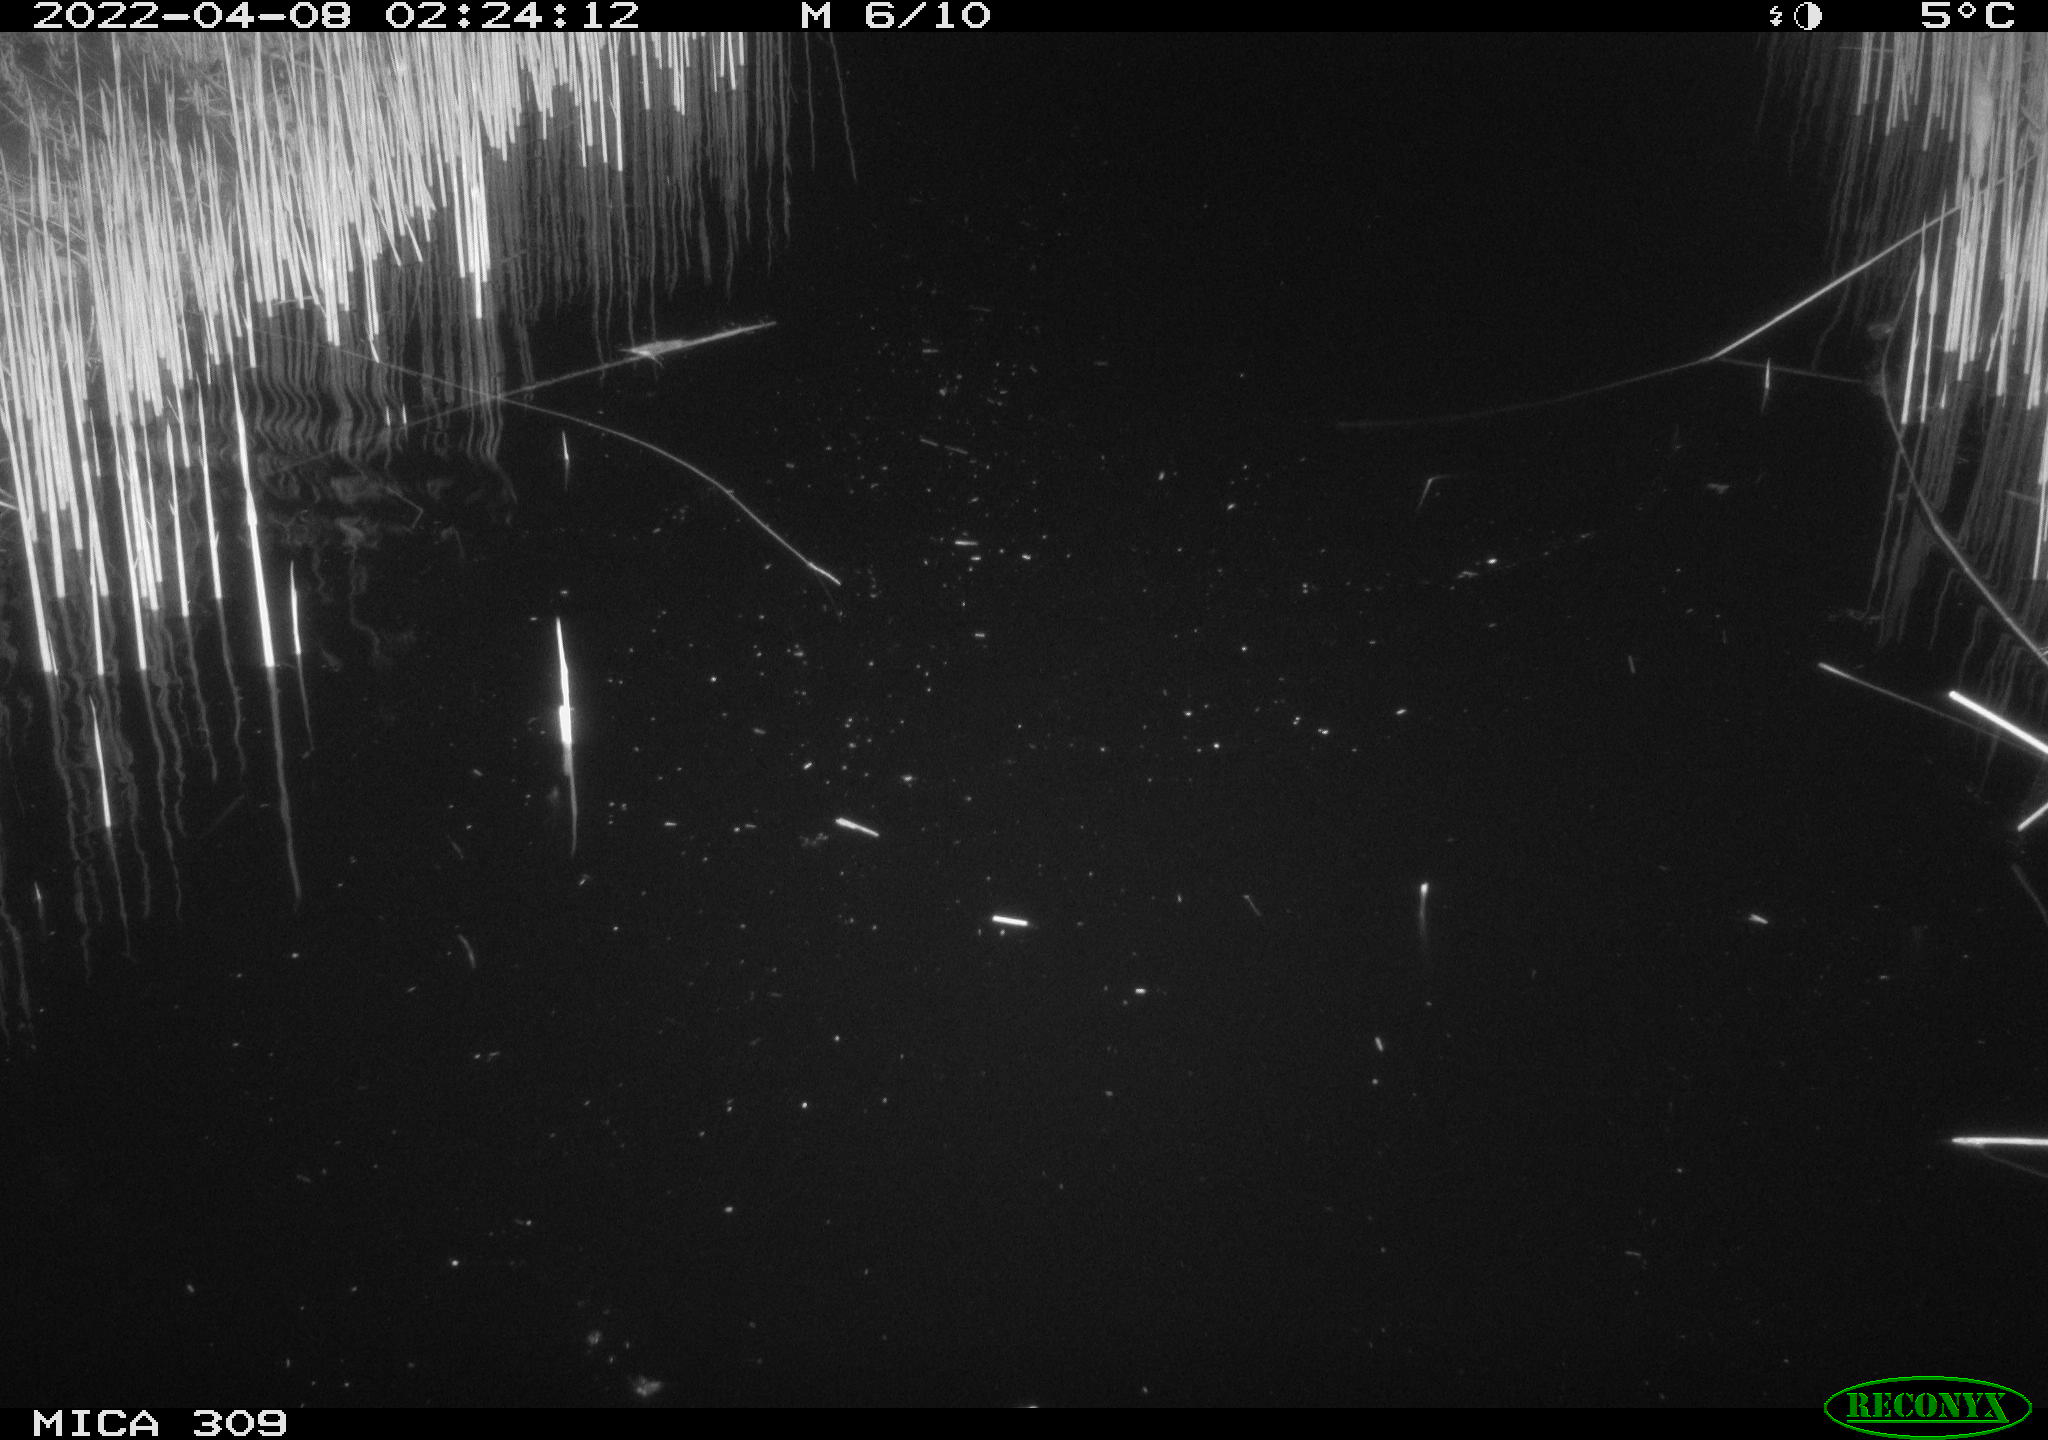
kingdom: Animalia
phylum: Chordata
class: Mammalia
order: Rodentia
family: Muridae
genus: Rattus
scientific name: Rattus norvegicus
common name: Brown rat
